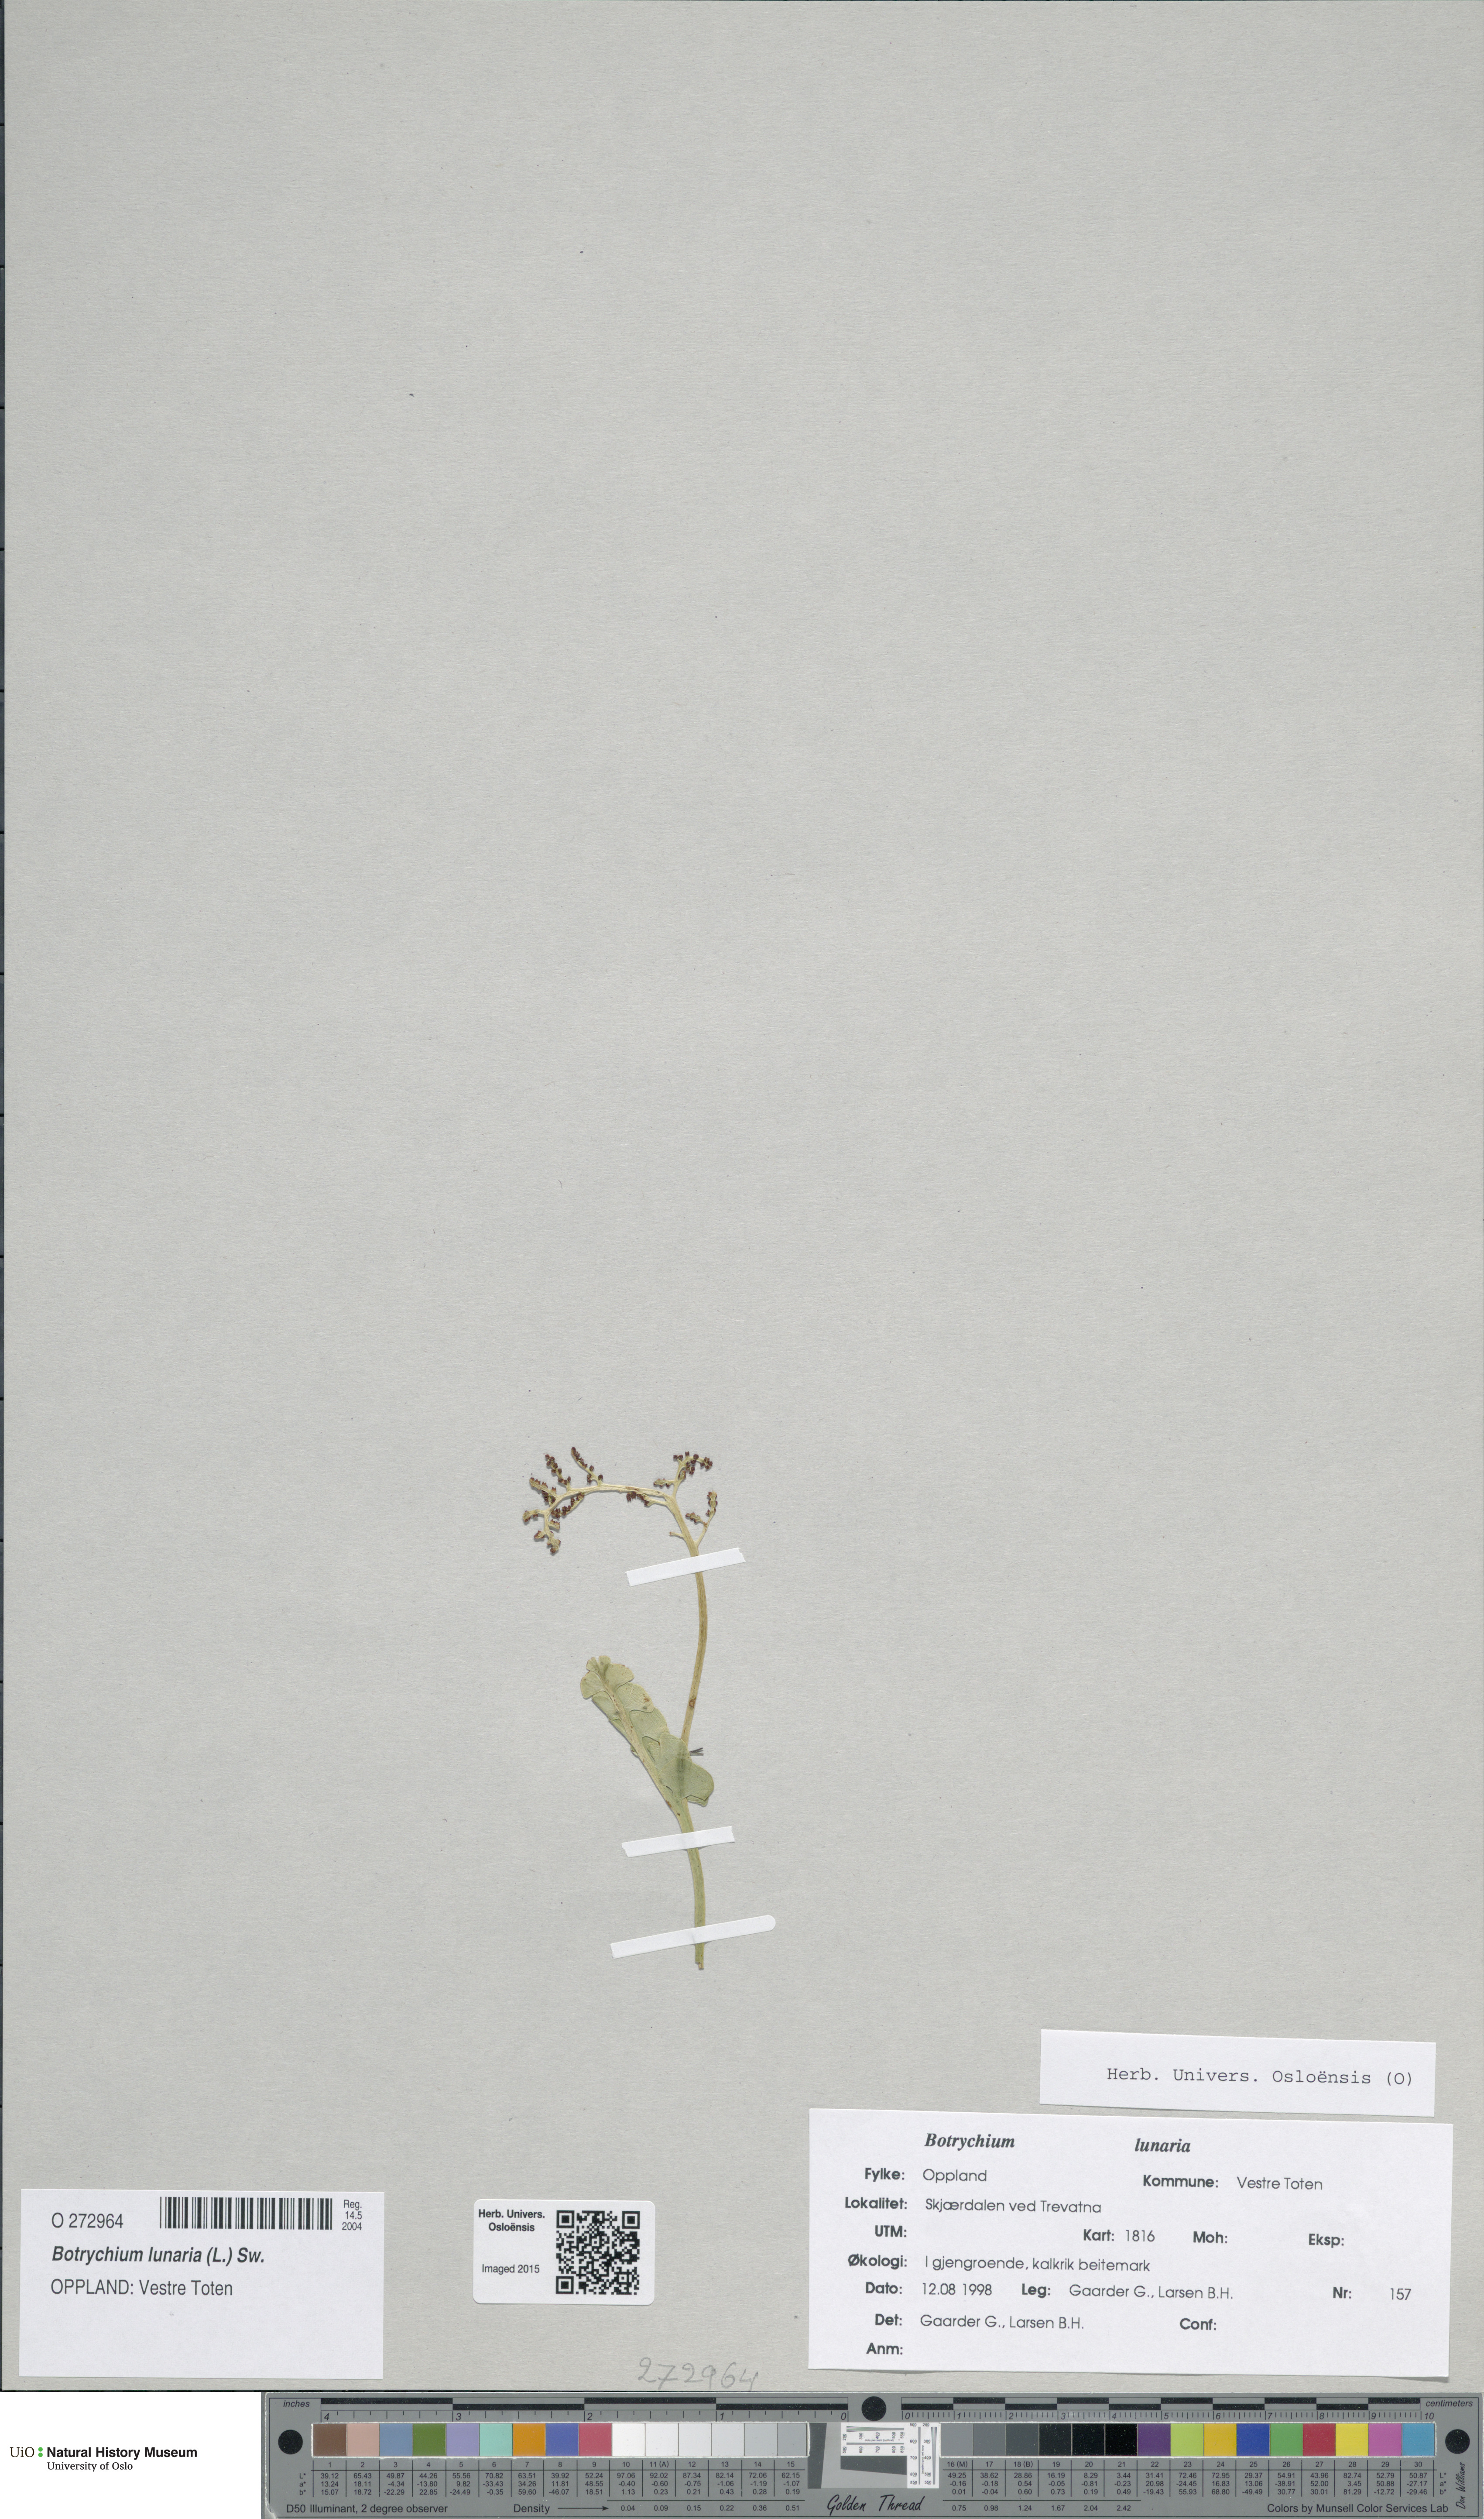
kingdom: Plantae
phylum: Tracheophyta
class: Polypodiopsida
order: Ophioglossales
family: Ophioglossaceae
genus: Botrychium
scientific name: Botrychium lunaria
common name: Moonwort
